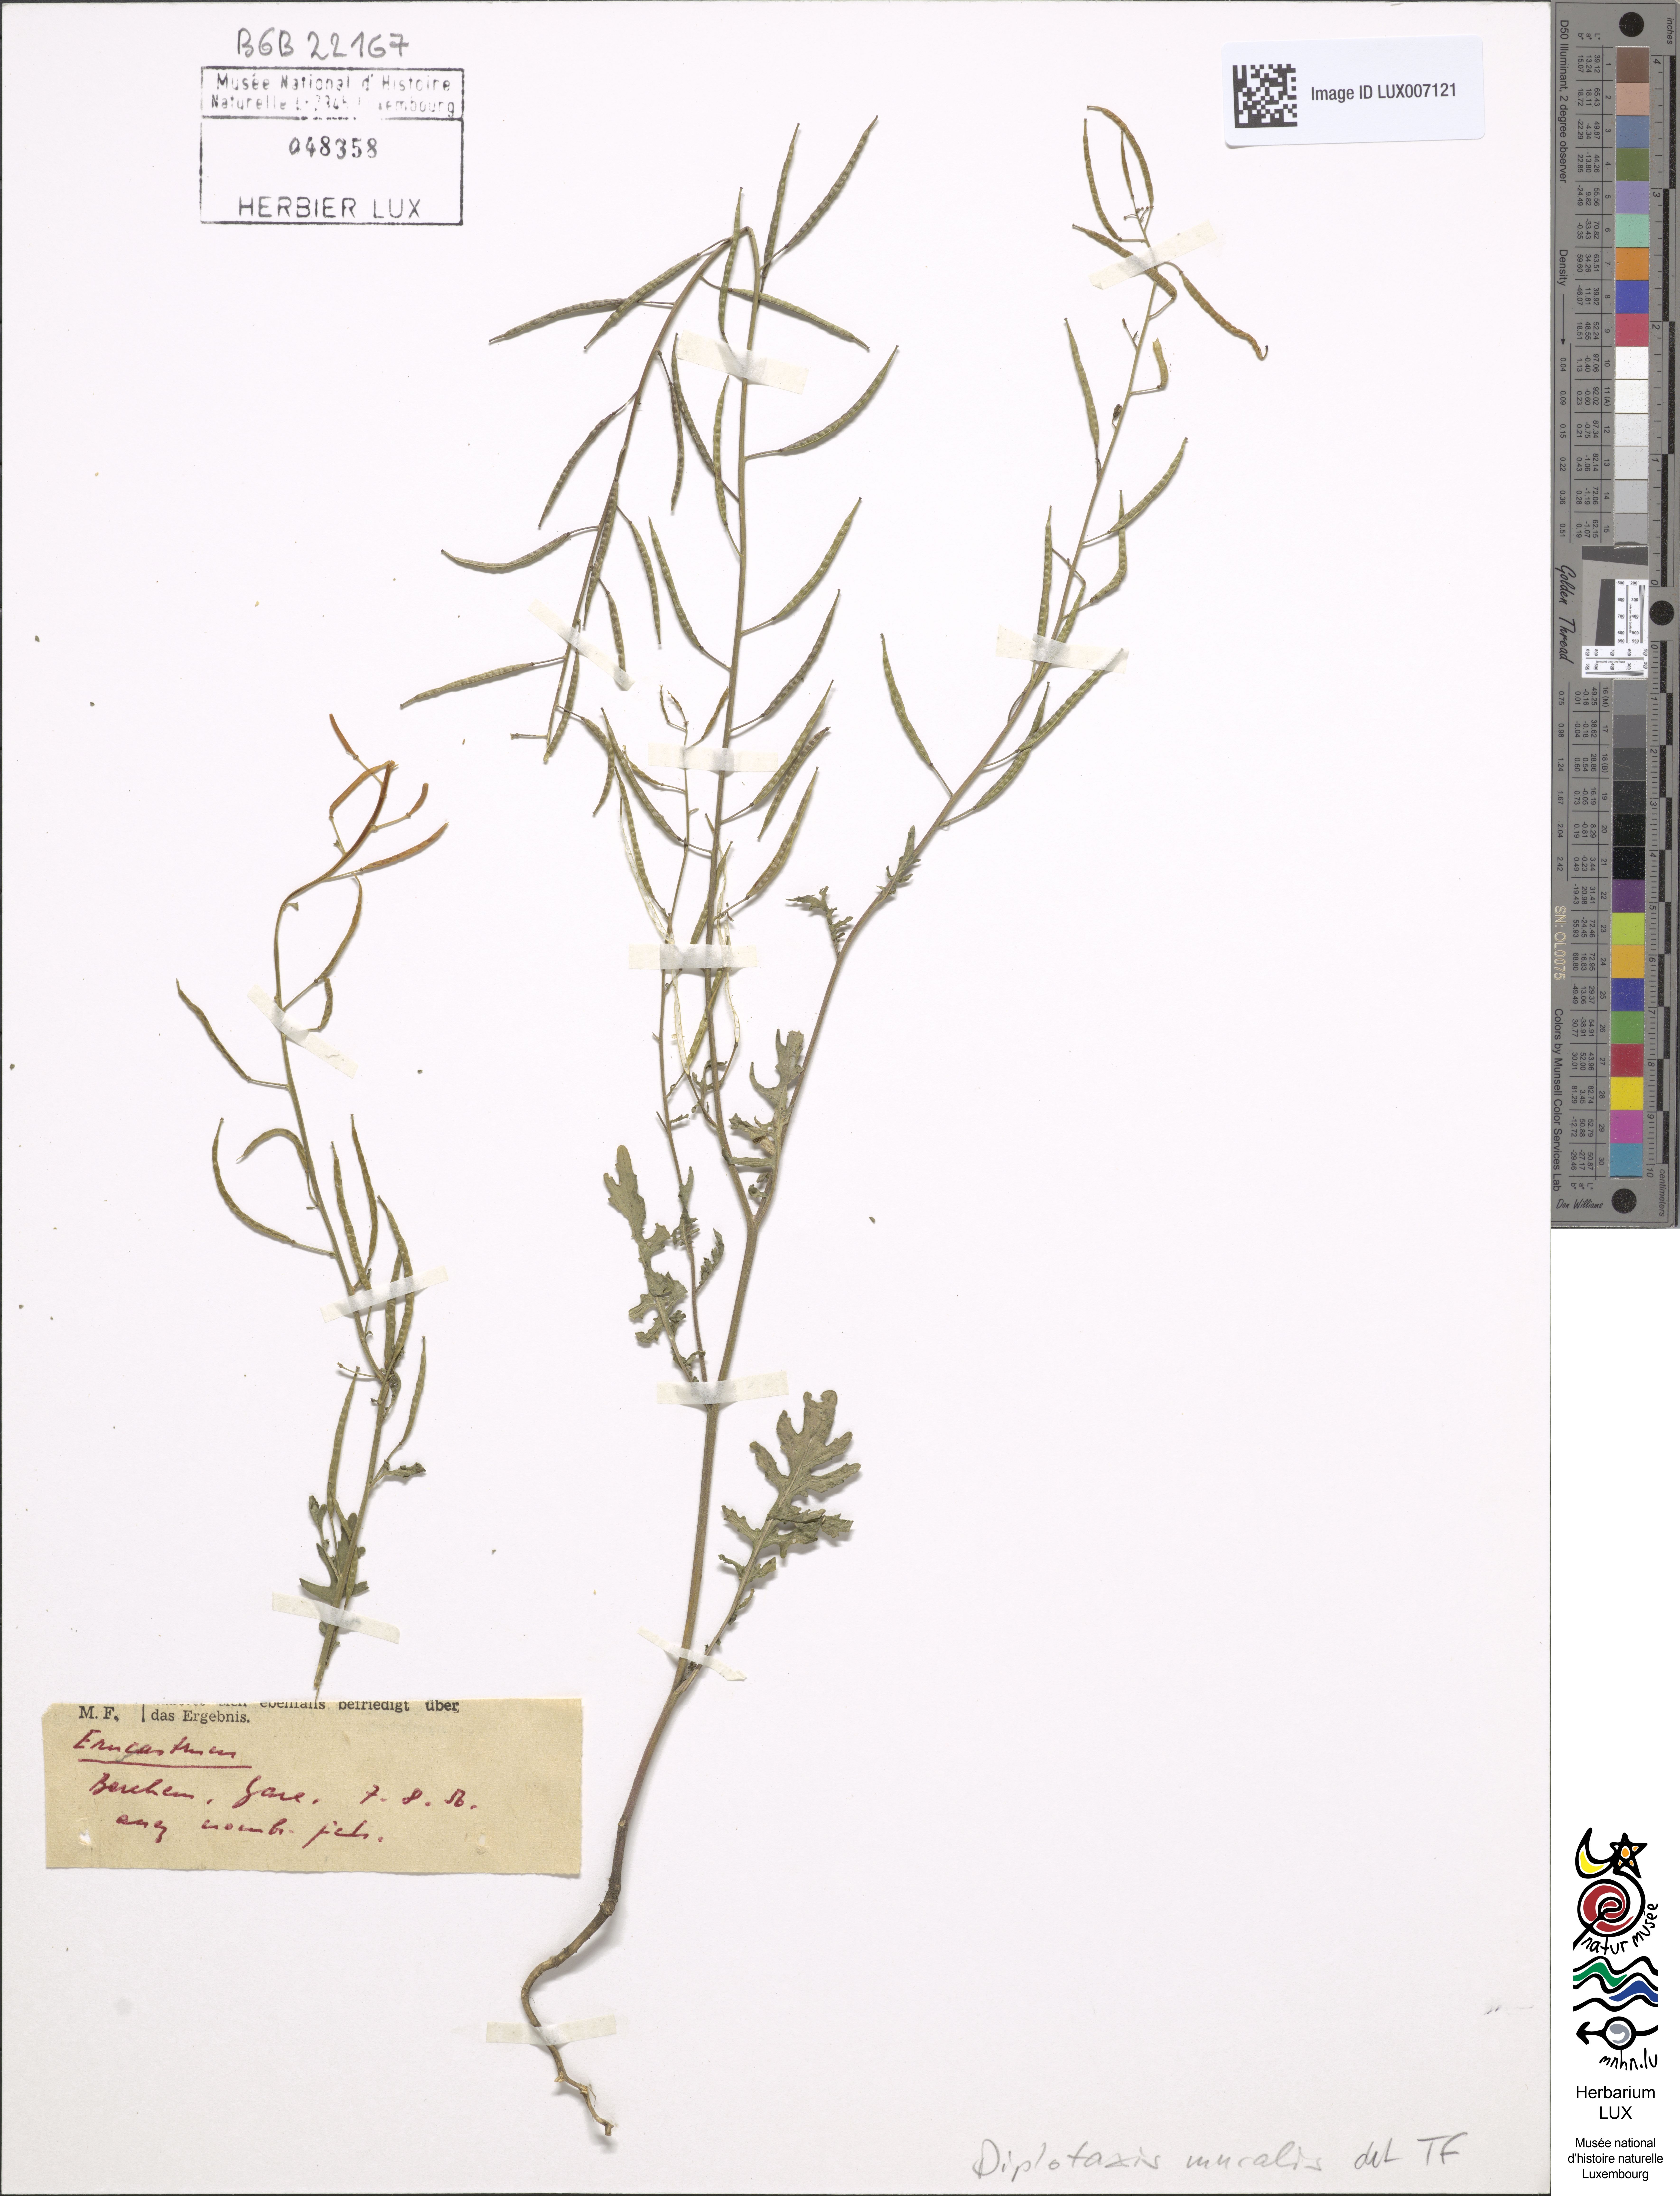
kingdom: Plantae
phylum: Tracheophyta
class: Magnoliopsida
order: Brassicales
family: Brassicaceae
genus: Diplotaxis
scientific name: Diplotaxis muralis
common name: Annual wall-rocket
